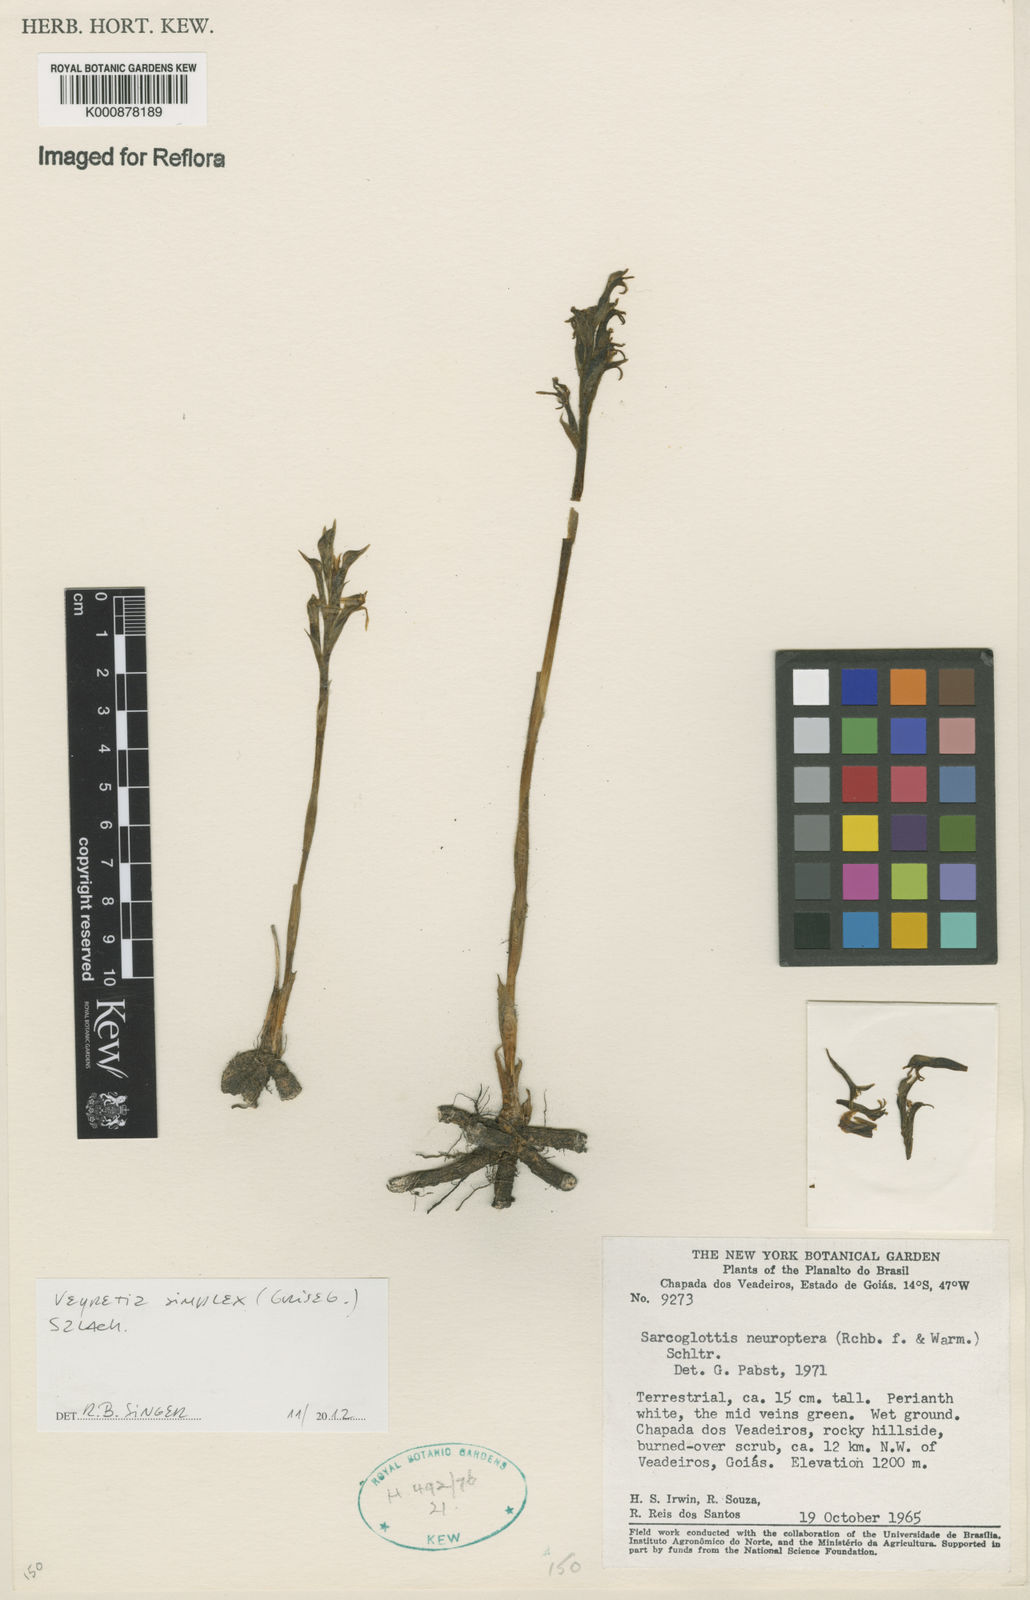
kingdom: Plantae
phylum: Tracheophyta
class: Liliopsida
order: Asparagales
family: Orchidaceae
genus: Veyretia
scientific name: Veyretia simplex
